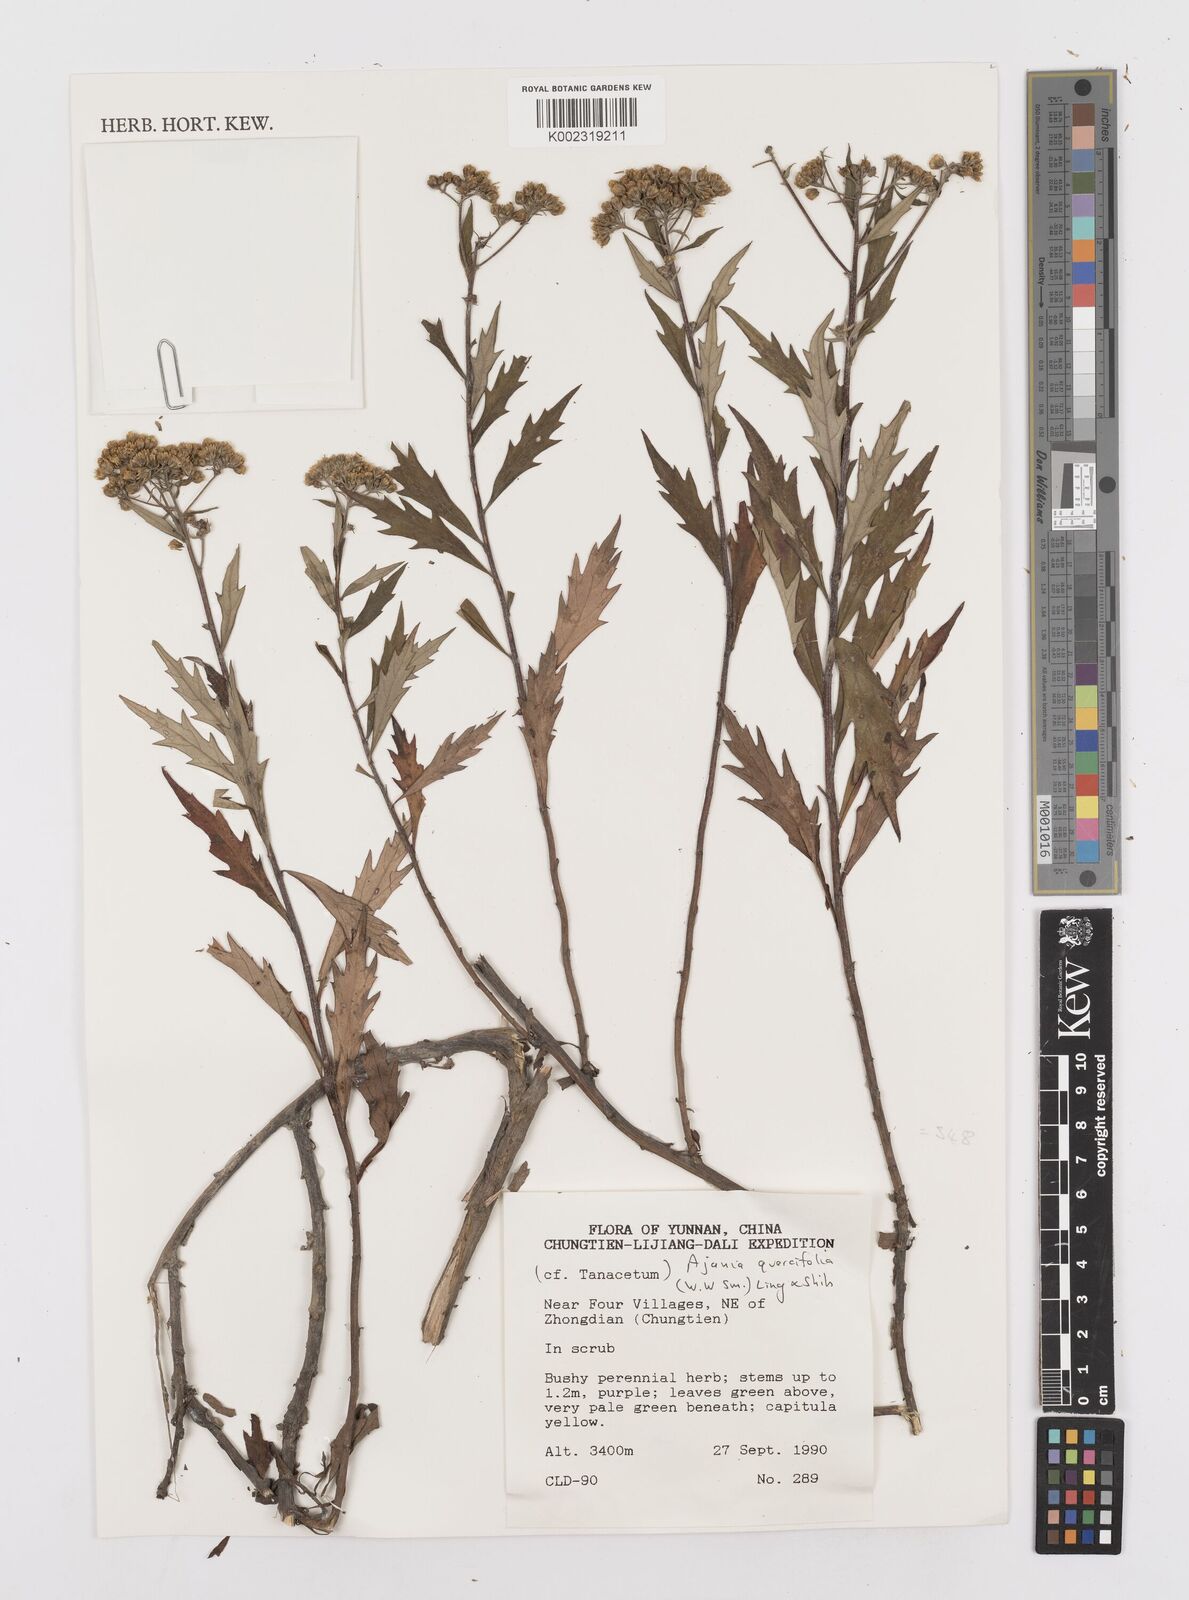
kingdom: Plantae
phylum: Tracheophyta
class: Magnoliopsida
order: Asterales
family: Asteraceae
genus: Phaeostigma
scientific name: Phaeostigma quercifolium
